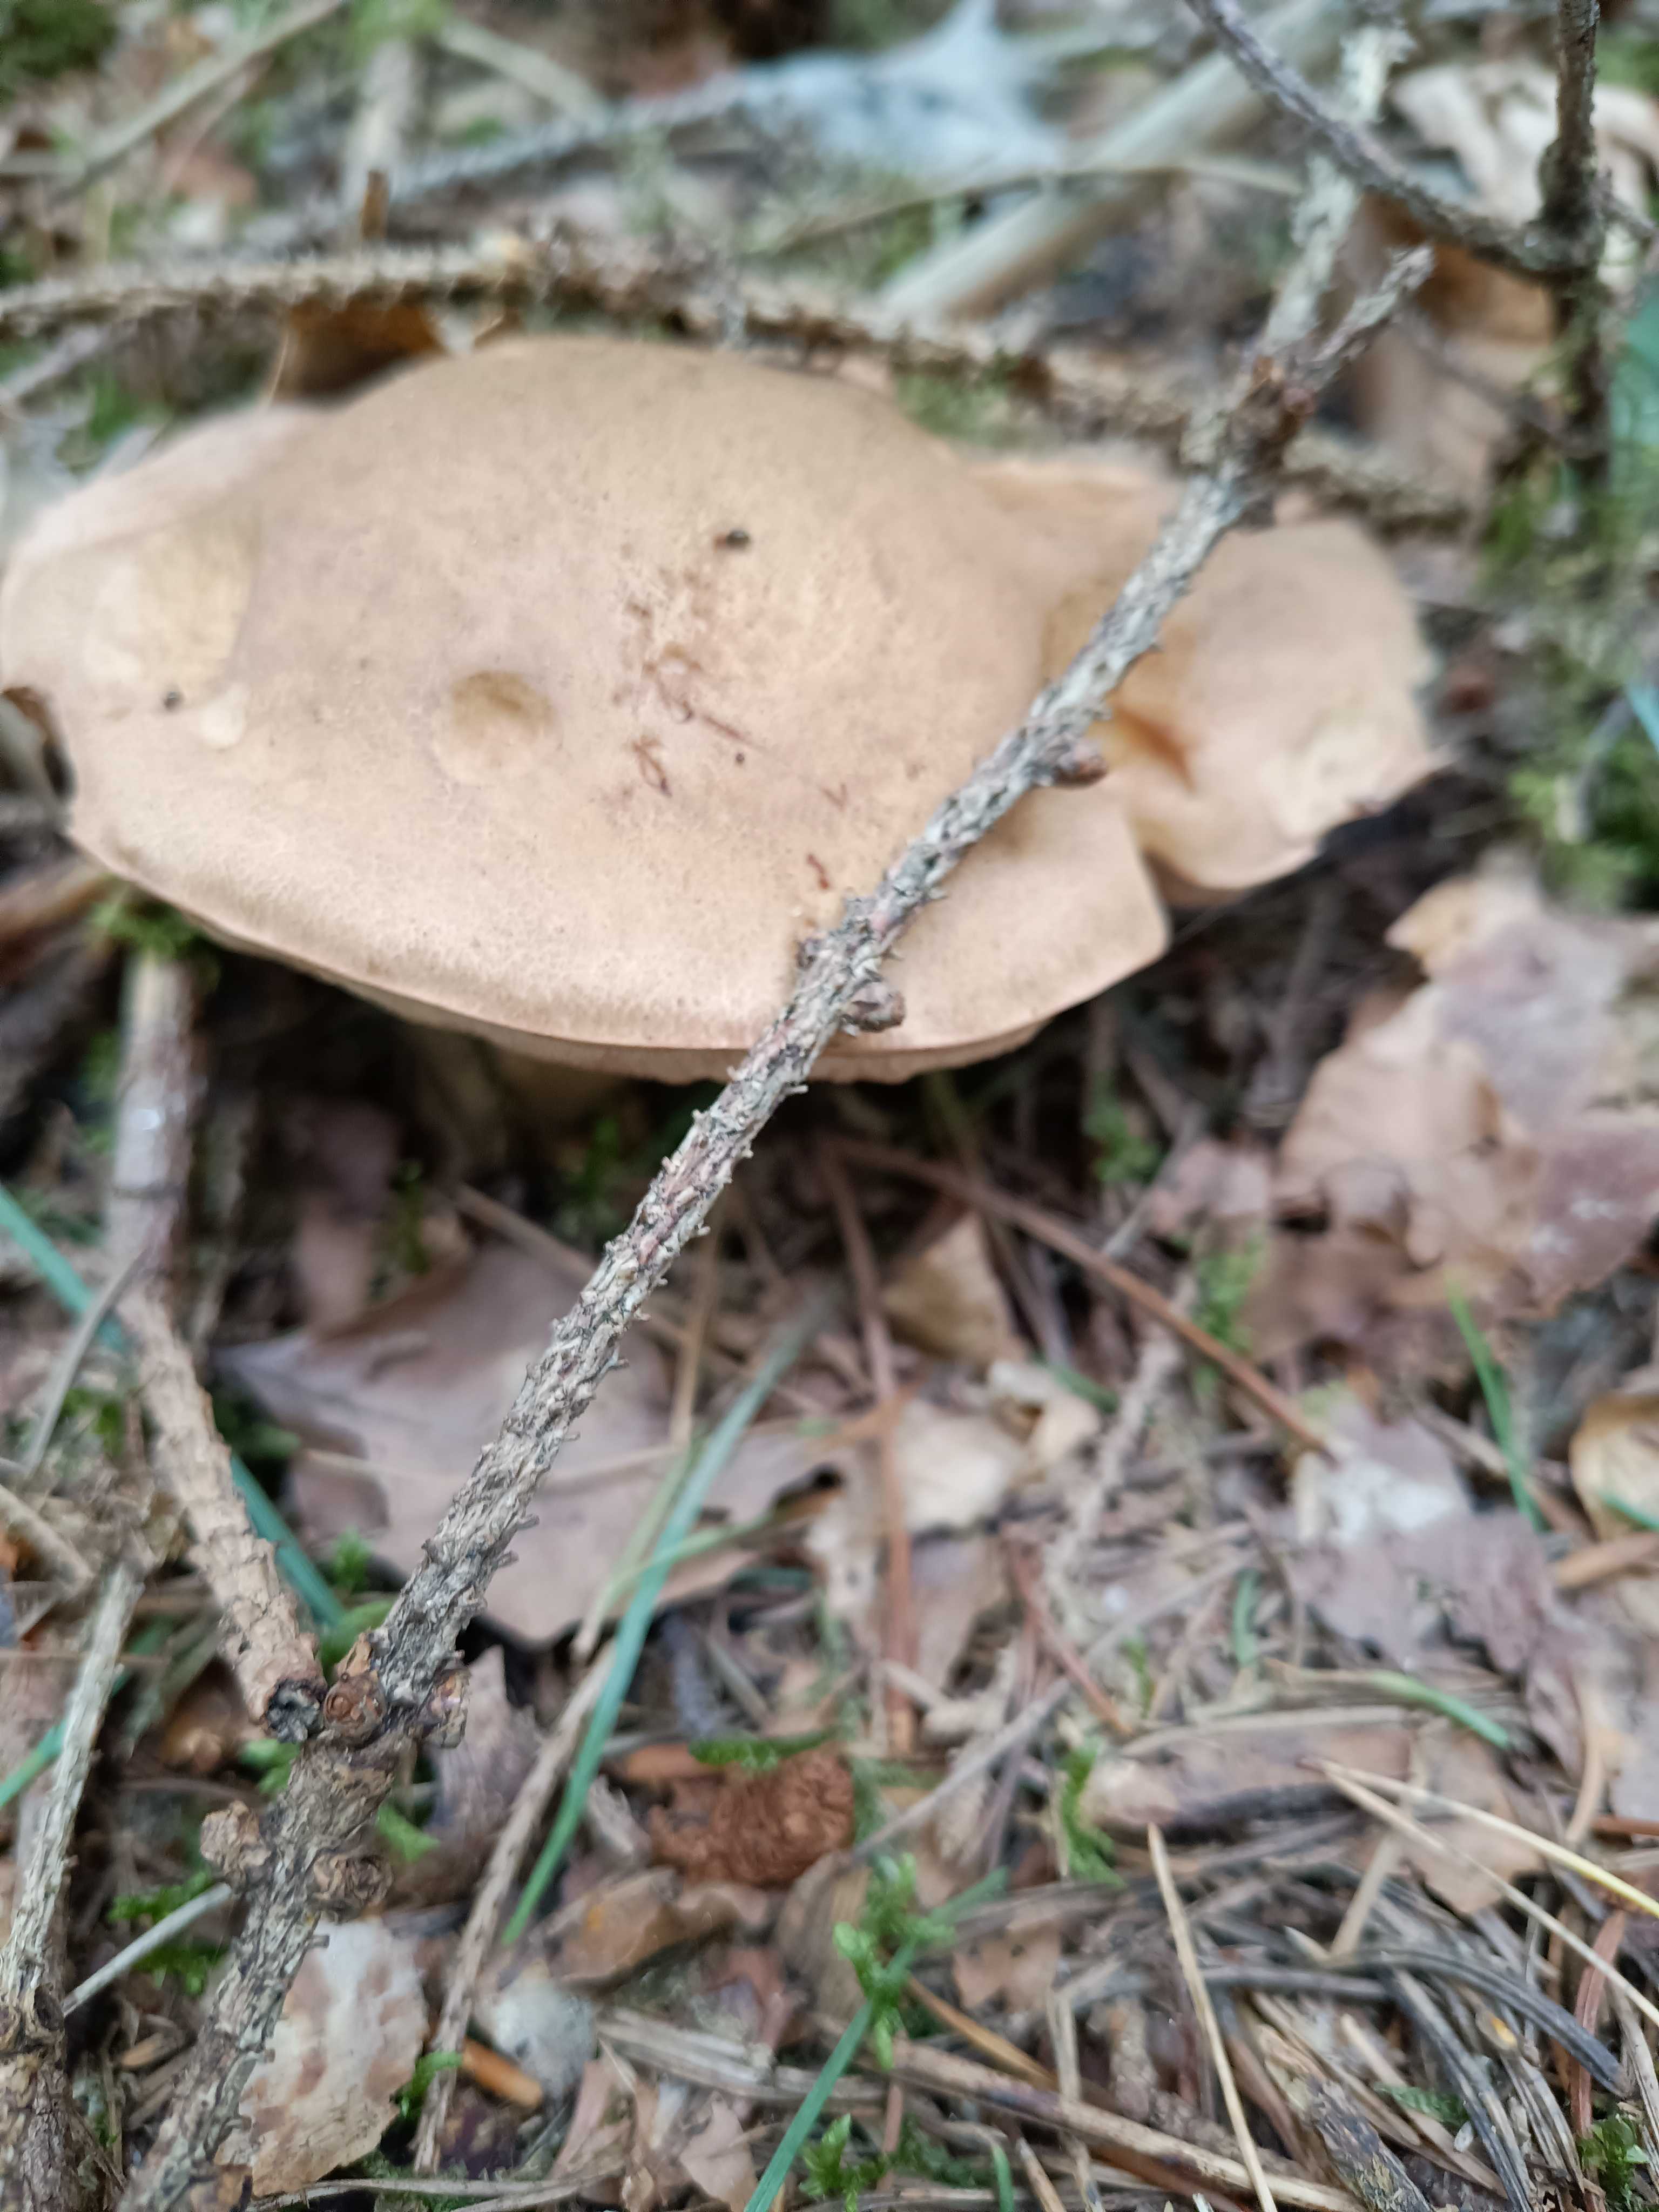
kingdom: Fungi
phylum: Basidiomycota
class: Agaricomycetes
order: Boletales
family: Boletaceae
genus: Tylopilus
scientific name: Tylopilus felleus
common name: galderørhat
